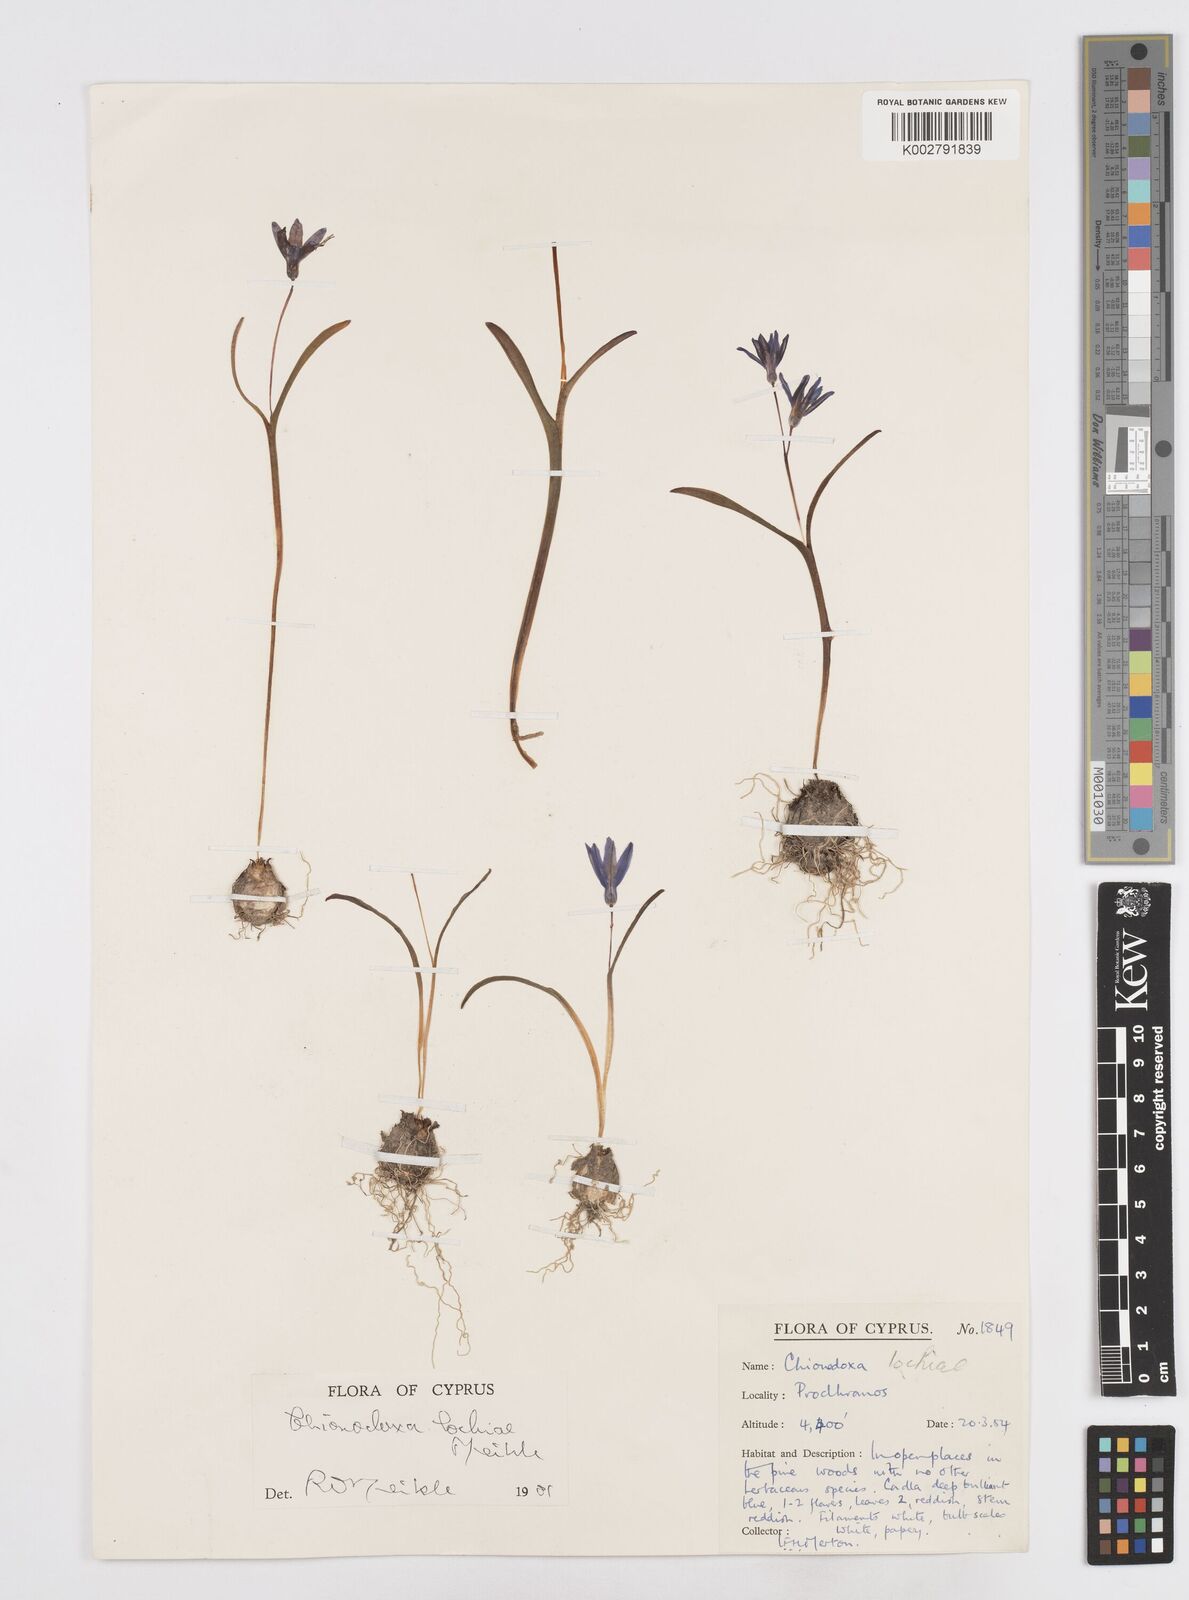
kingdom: Plantae
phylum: Tracheophyta
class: Liliopsida
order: Asparagales
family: Asparagaceae
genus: Scilla
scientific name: Scilla lochiae
